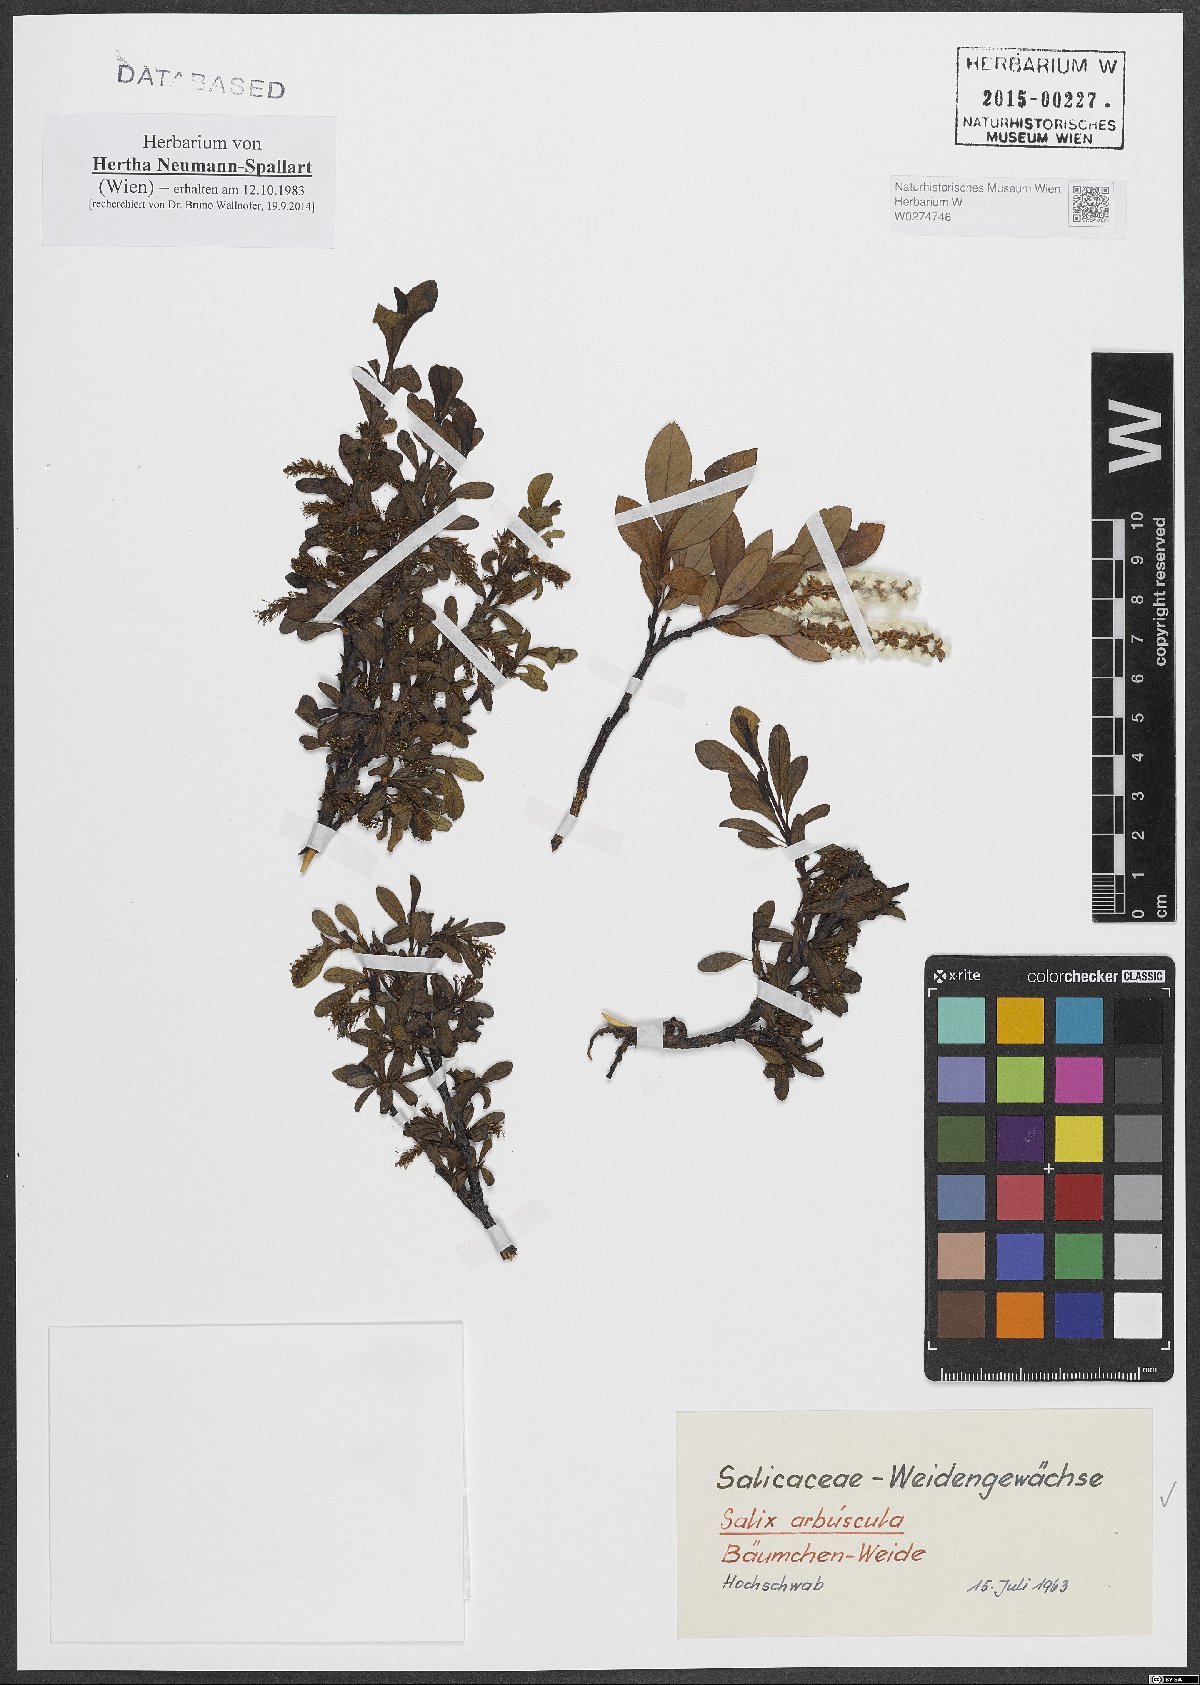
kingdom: Plantae
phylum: Tracheophyta
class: Magnoliopsida
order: Malpighiales
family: Salicaceae
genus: Salix
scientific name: Salix arbuscula
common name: Mountain willow
